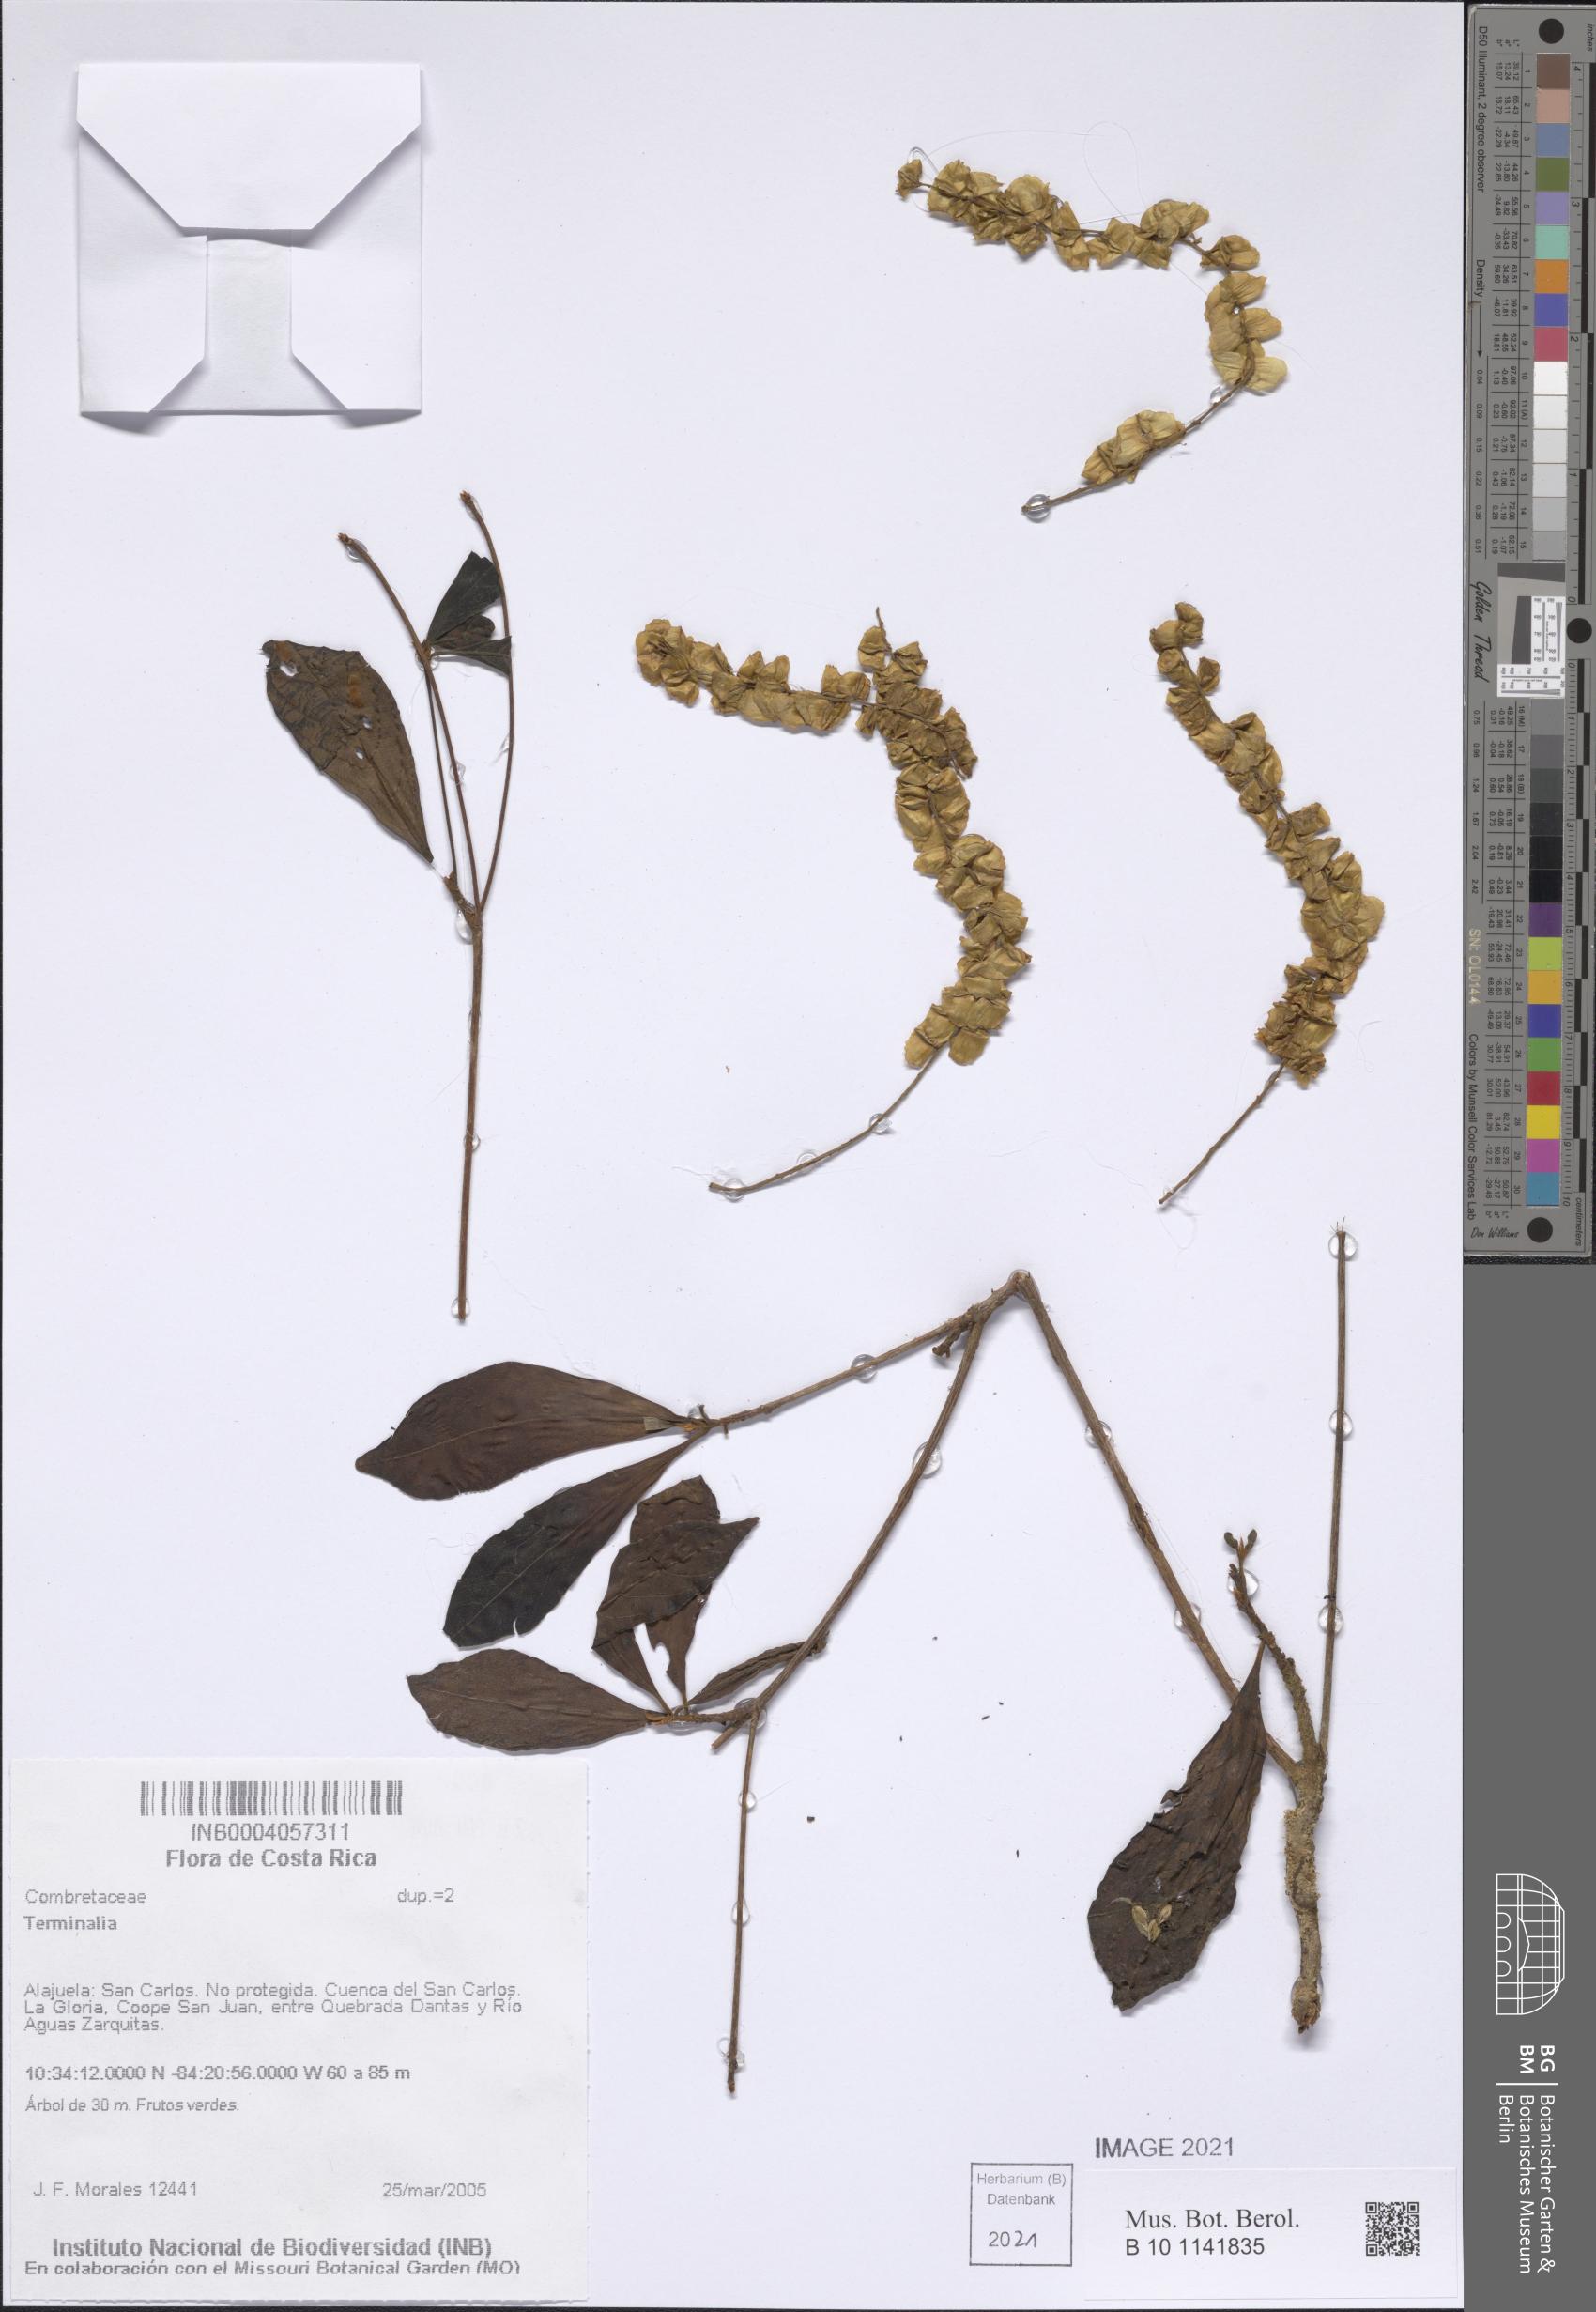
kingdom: Plantae
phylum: Tracheophyta
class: Magnoliopsida
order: Myrtales
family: Combretaceae
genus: Terminalia
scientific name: Terminalia
